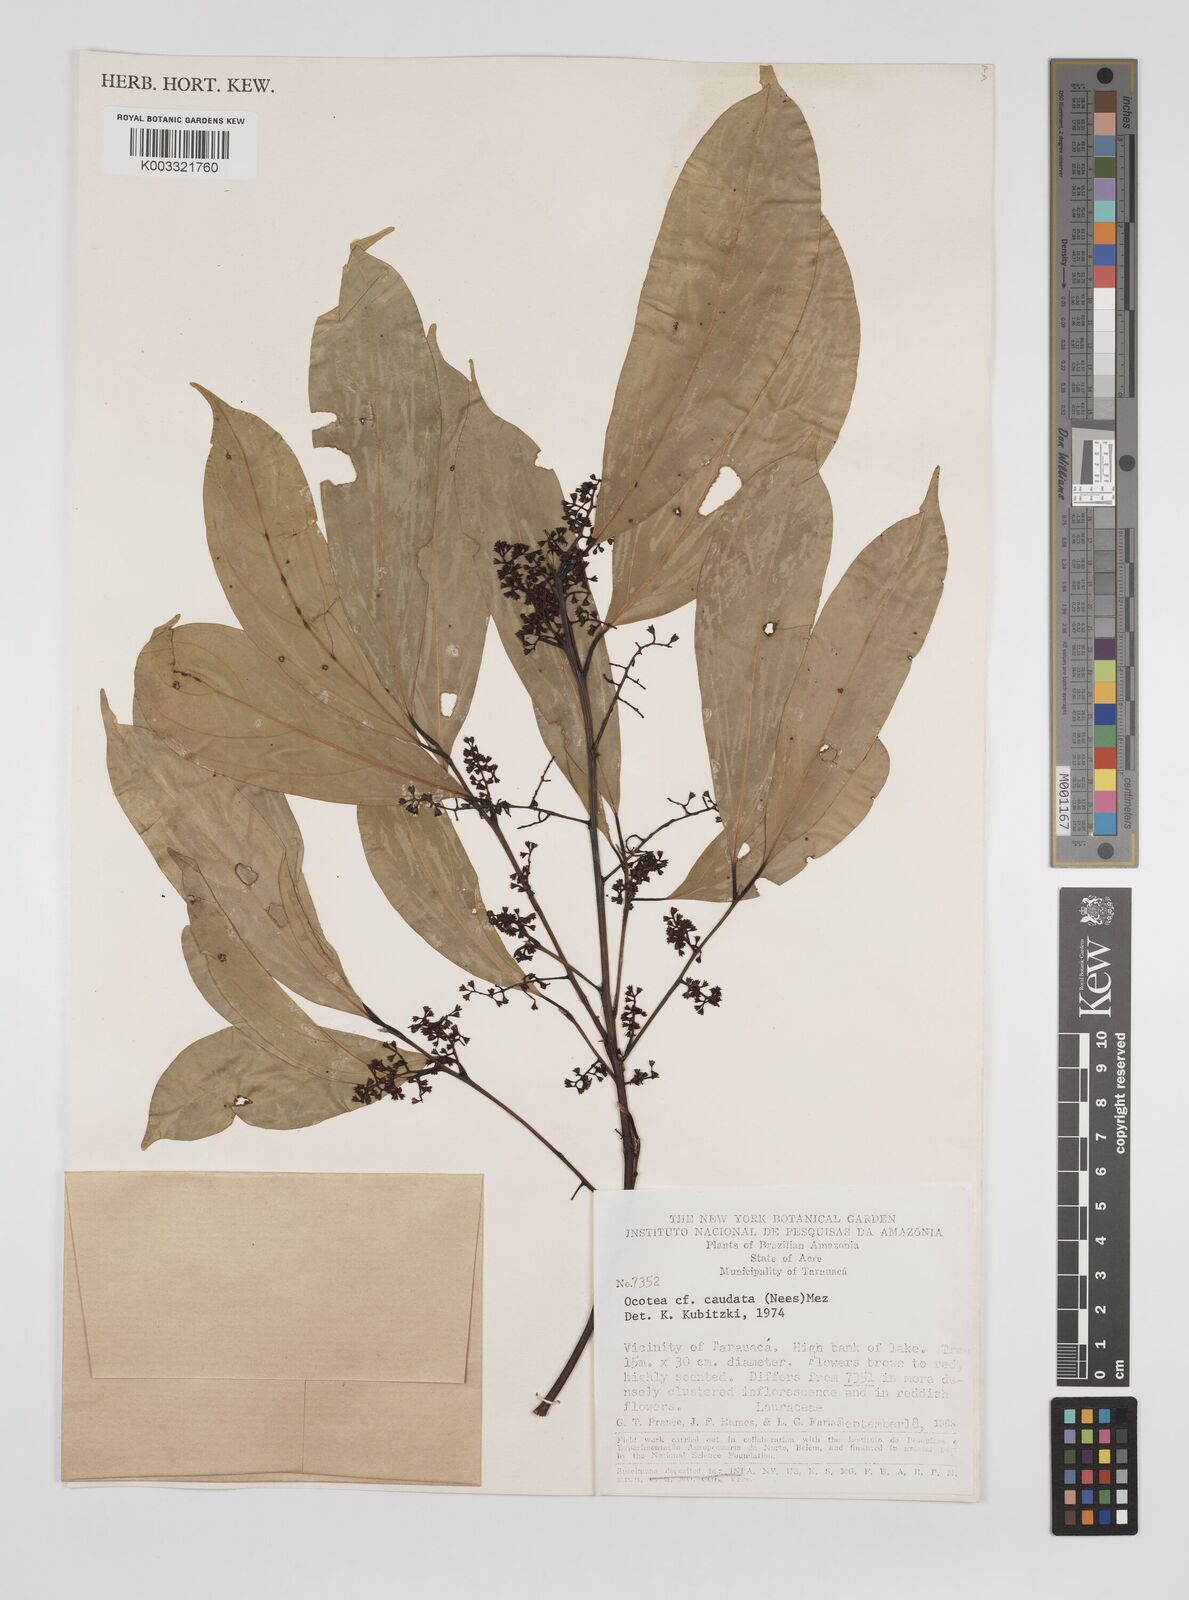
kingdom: Plantae
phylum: Tracheophyta
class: Magnoliopsida
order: Laurales
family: Lauraceae
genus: Ocotea
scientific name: Ocotea leptobotra
